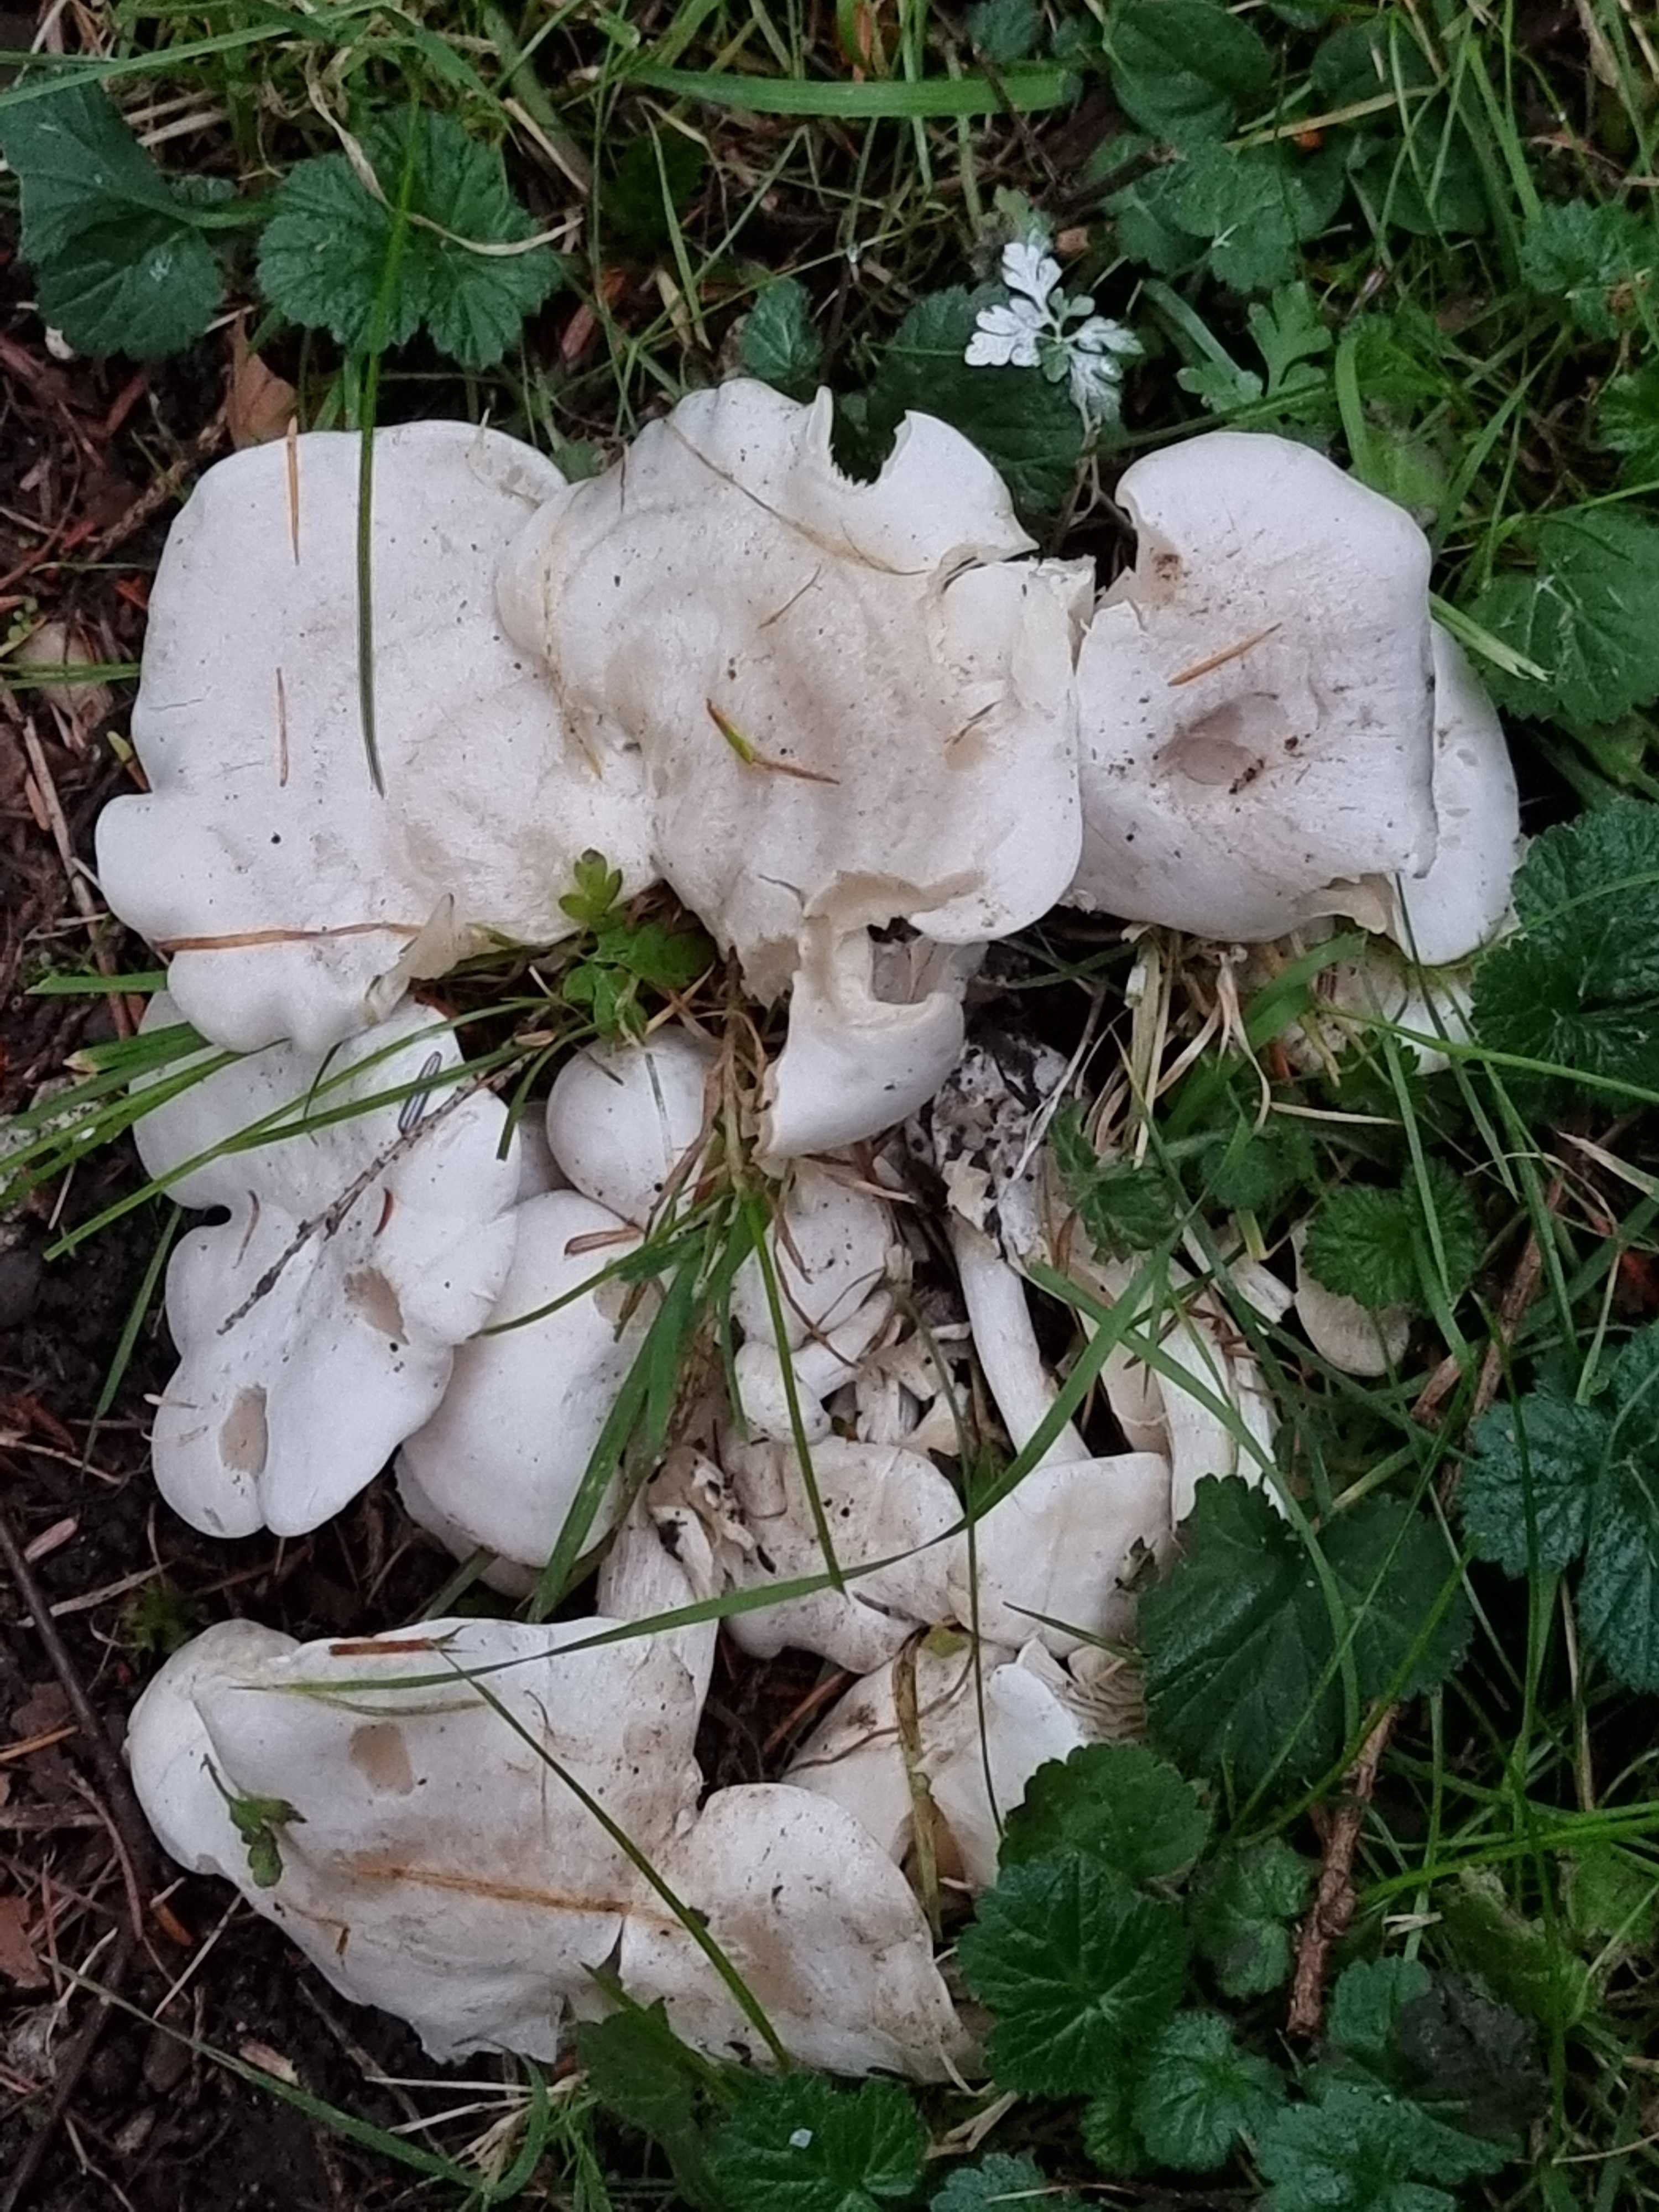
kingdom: Fungi
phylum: Basidiomycota
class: Agaricomycetes
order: Agaricales
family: Tricholomataceae
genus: Leucocybe
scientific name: Leucocybe connata
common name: knippe-tragthat
